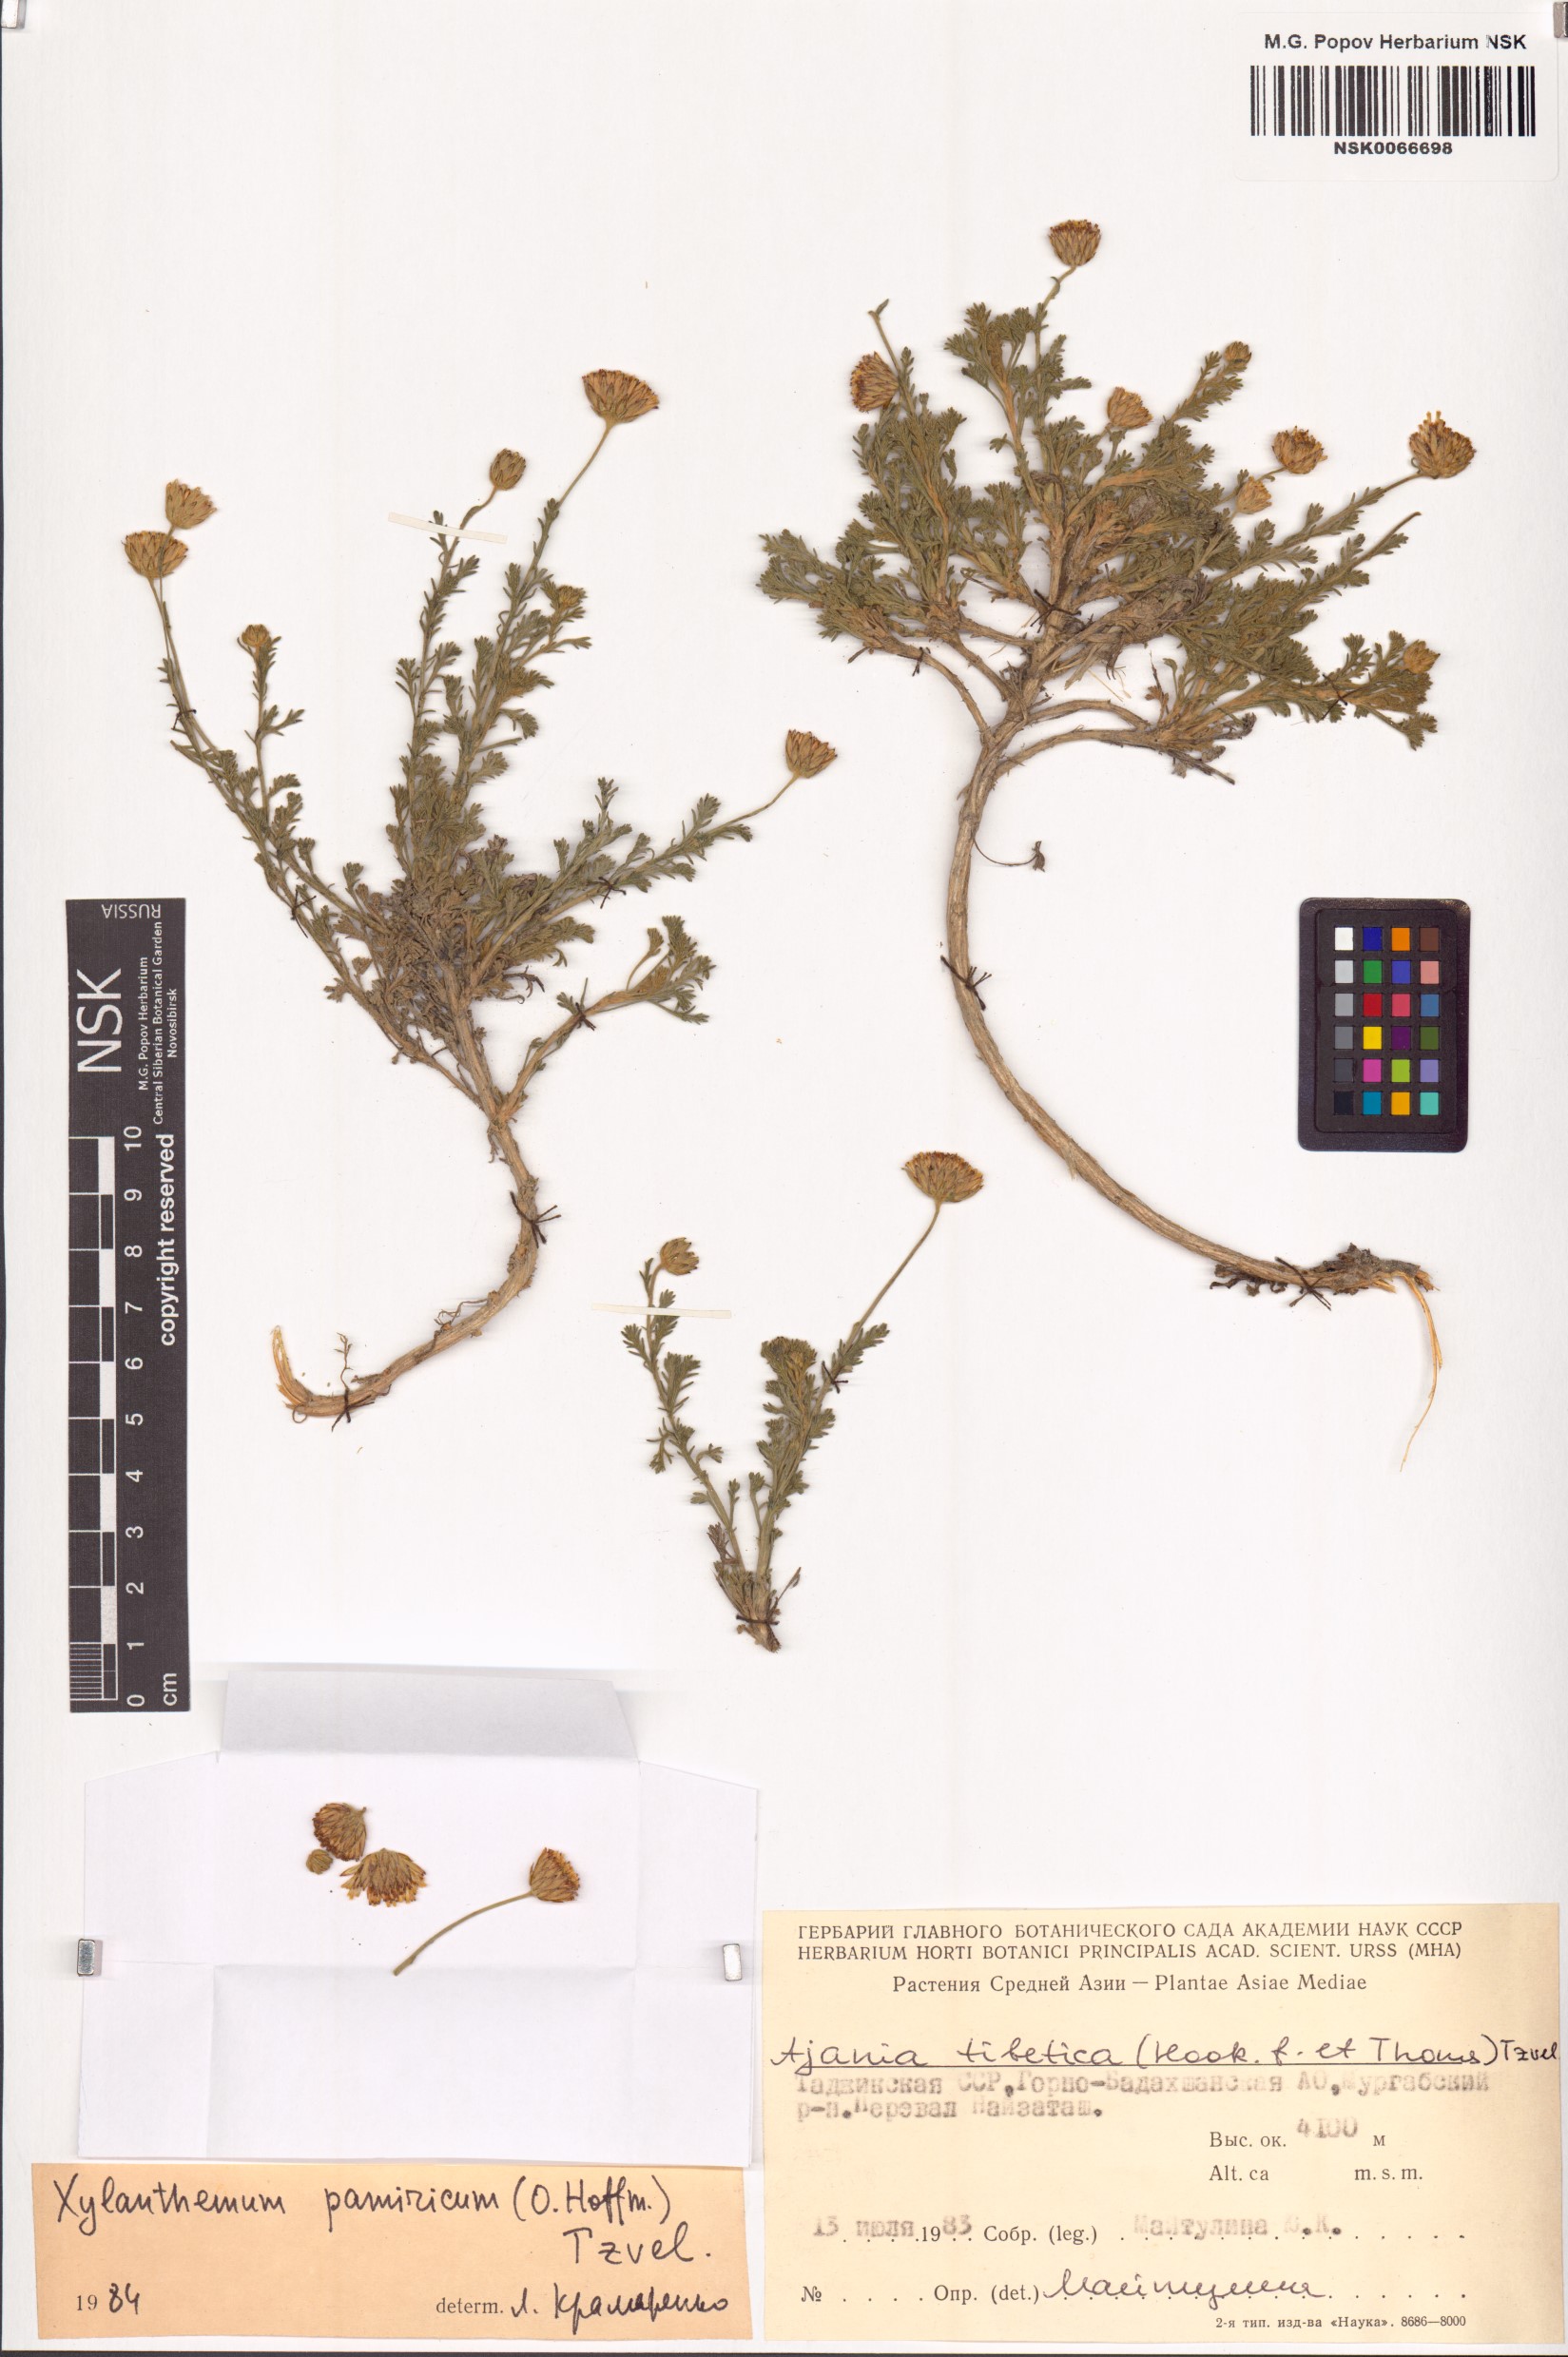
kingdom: Plantae
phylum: Tracheophyta
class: Magnoliopsida
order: Asterales
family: Asteraceae
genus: Xylanthemum
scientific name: Xylanthemum pamiricum
